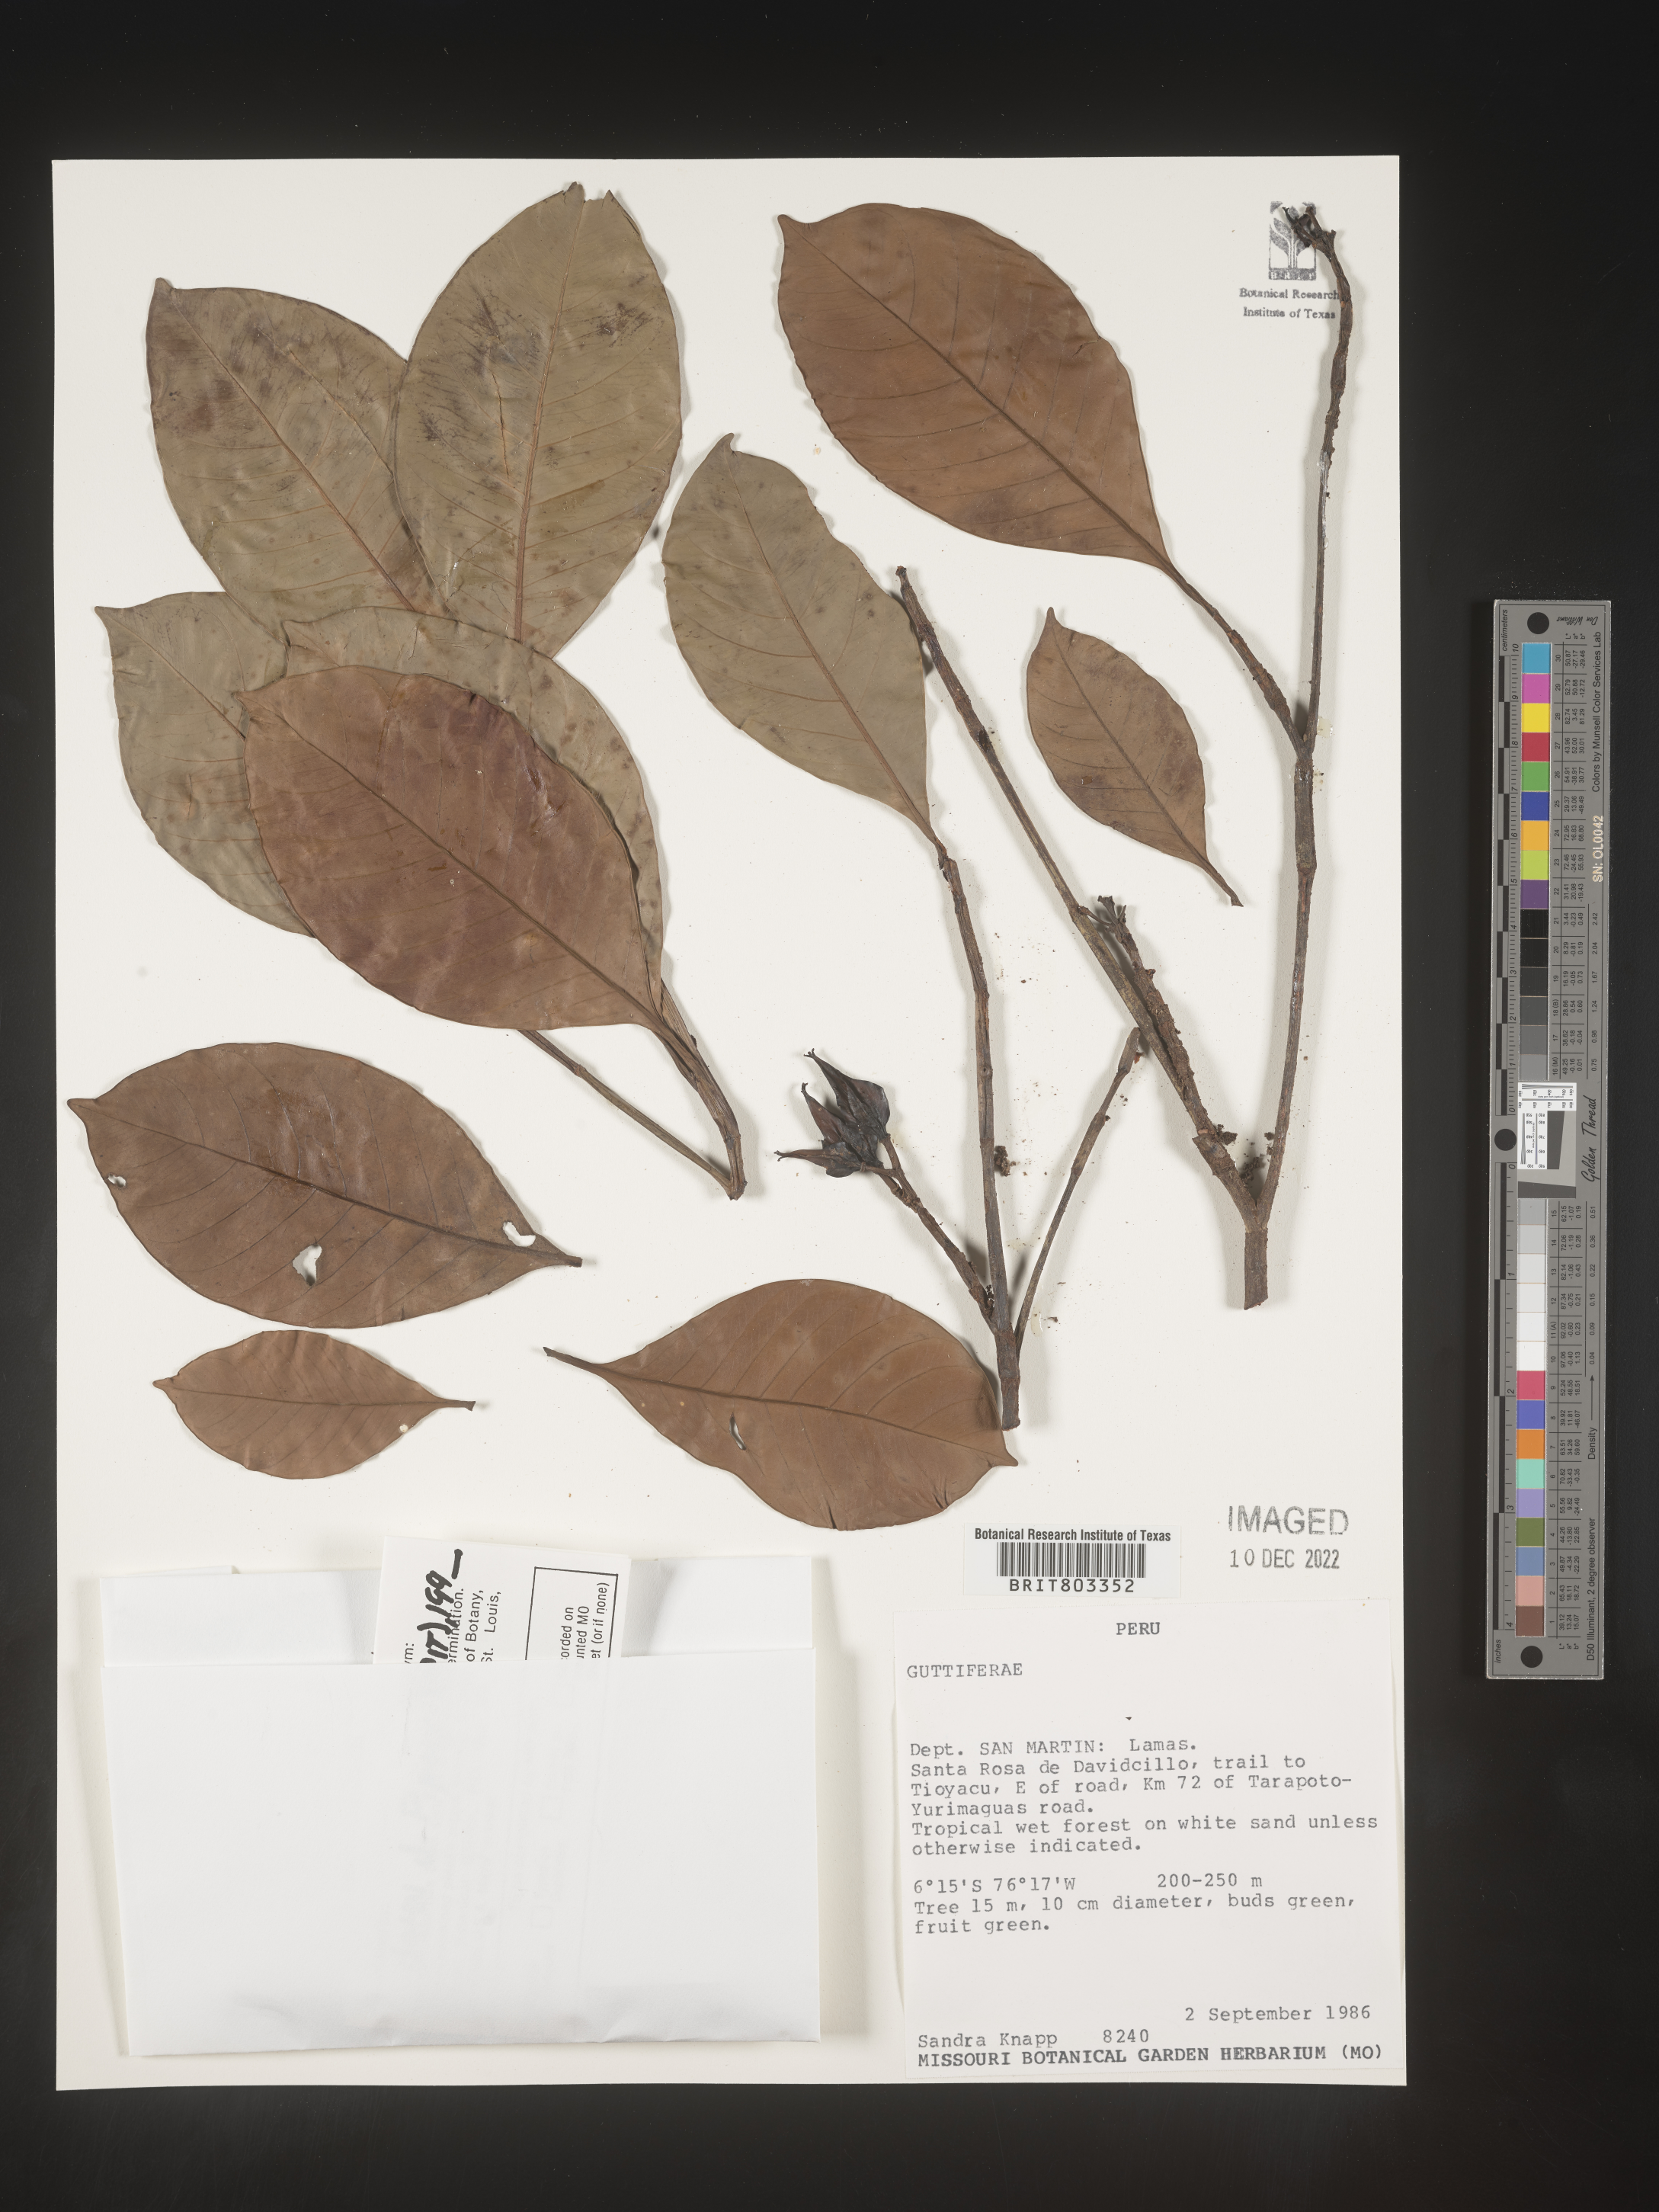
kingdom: Plantae
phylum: Tracheophyta
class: Magnoliopsida
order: Malpighiales
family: Clusiaceae
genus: Tovomita
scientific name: Tovomita
